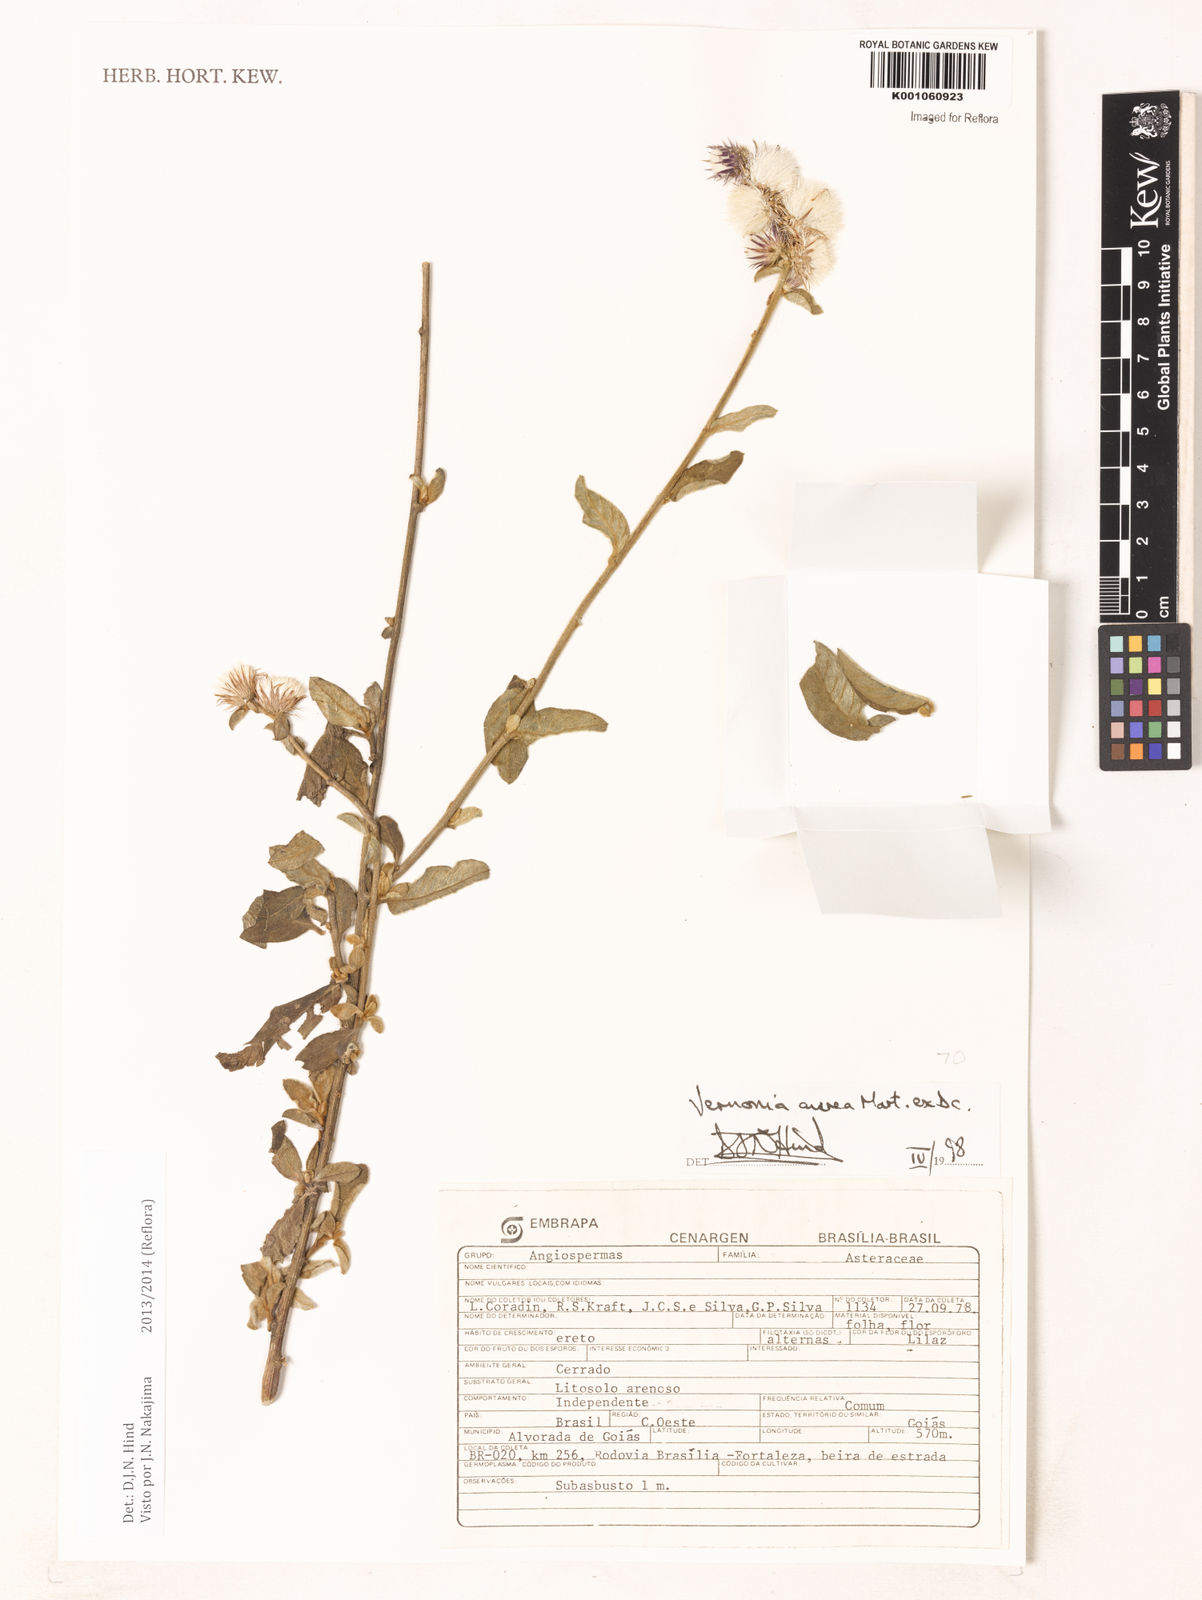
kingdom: Plantae
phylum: Tracheophyta
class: Magnoliopsida
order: Asterales
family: Asteraceae
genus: Lepidaploa
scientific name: Lepidaploa aurea
